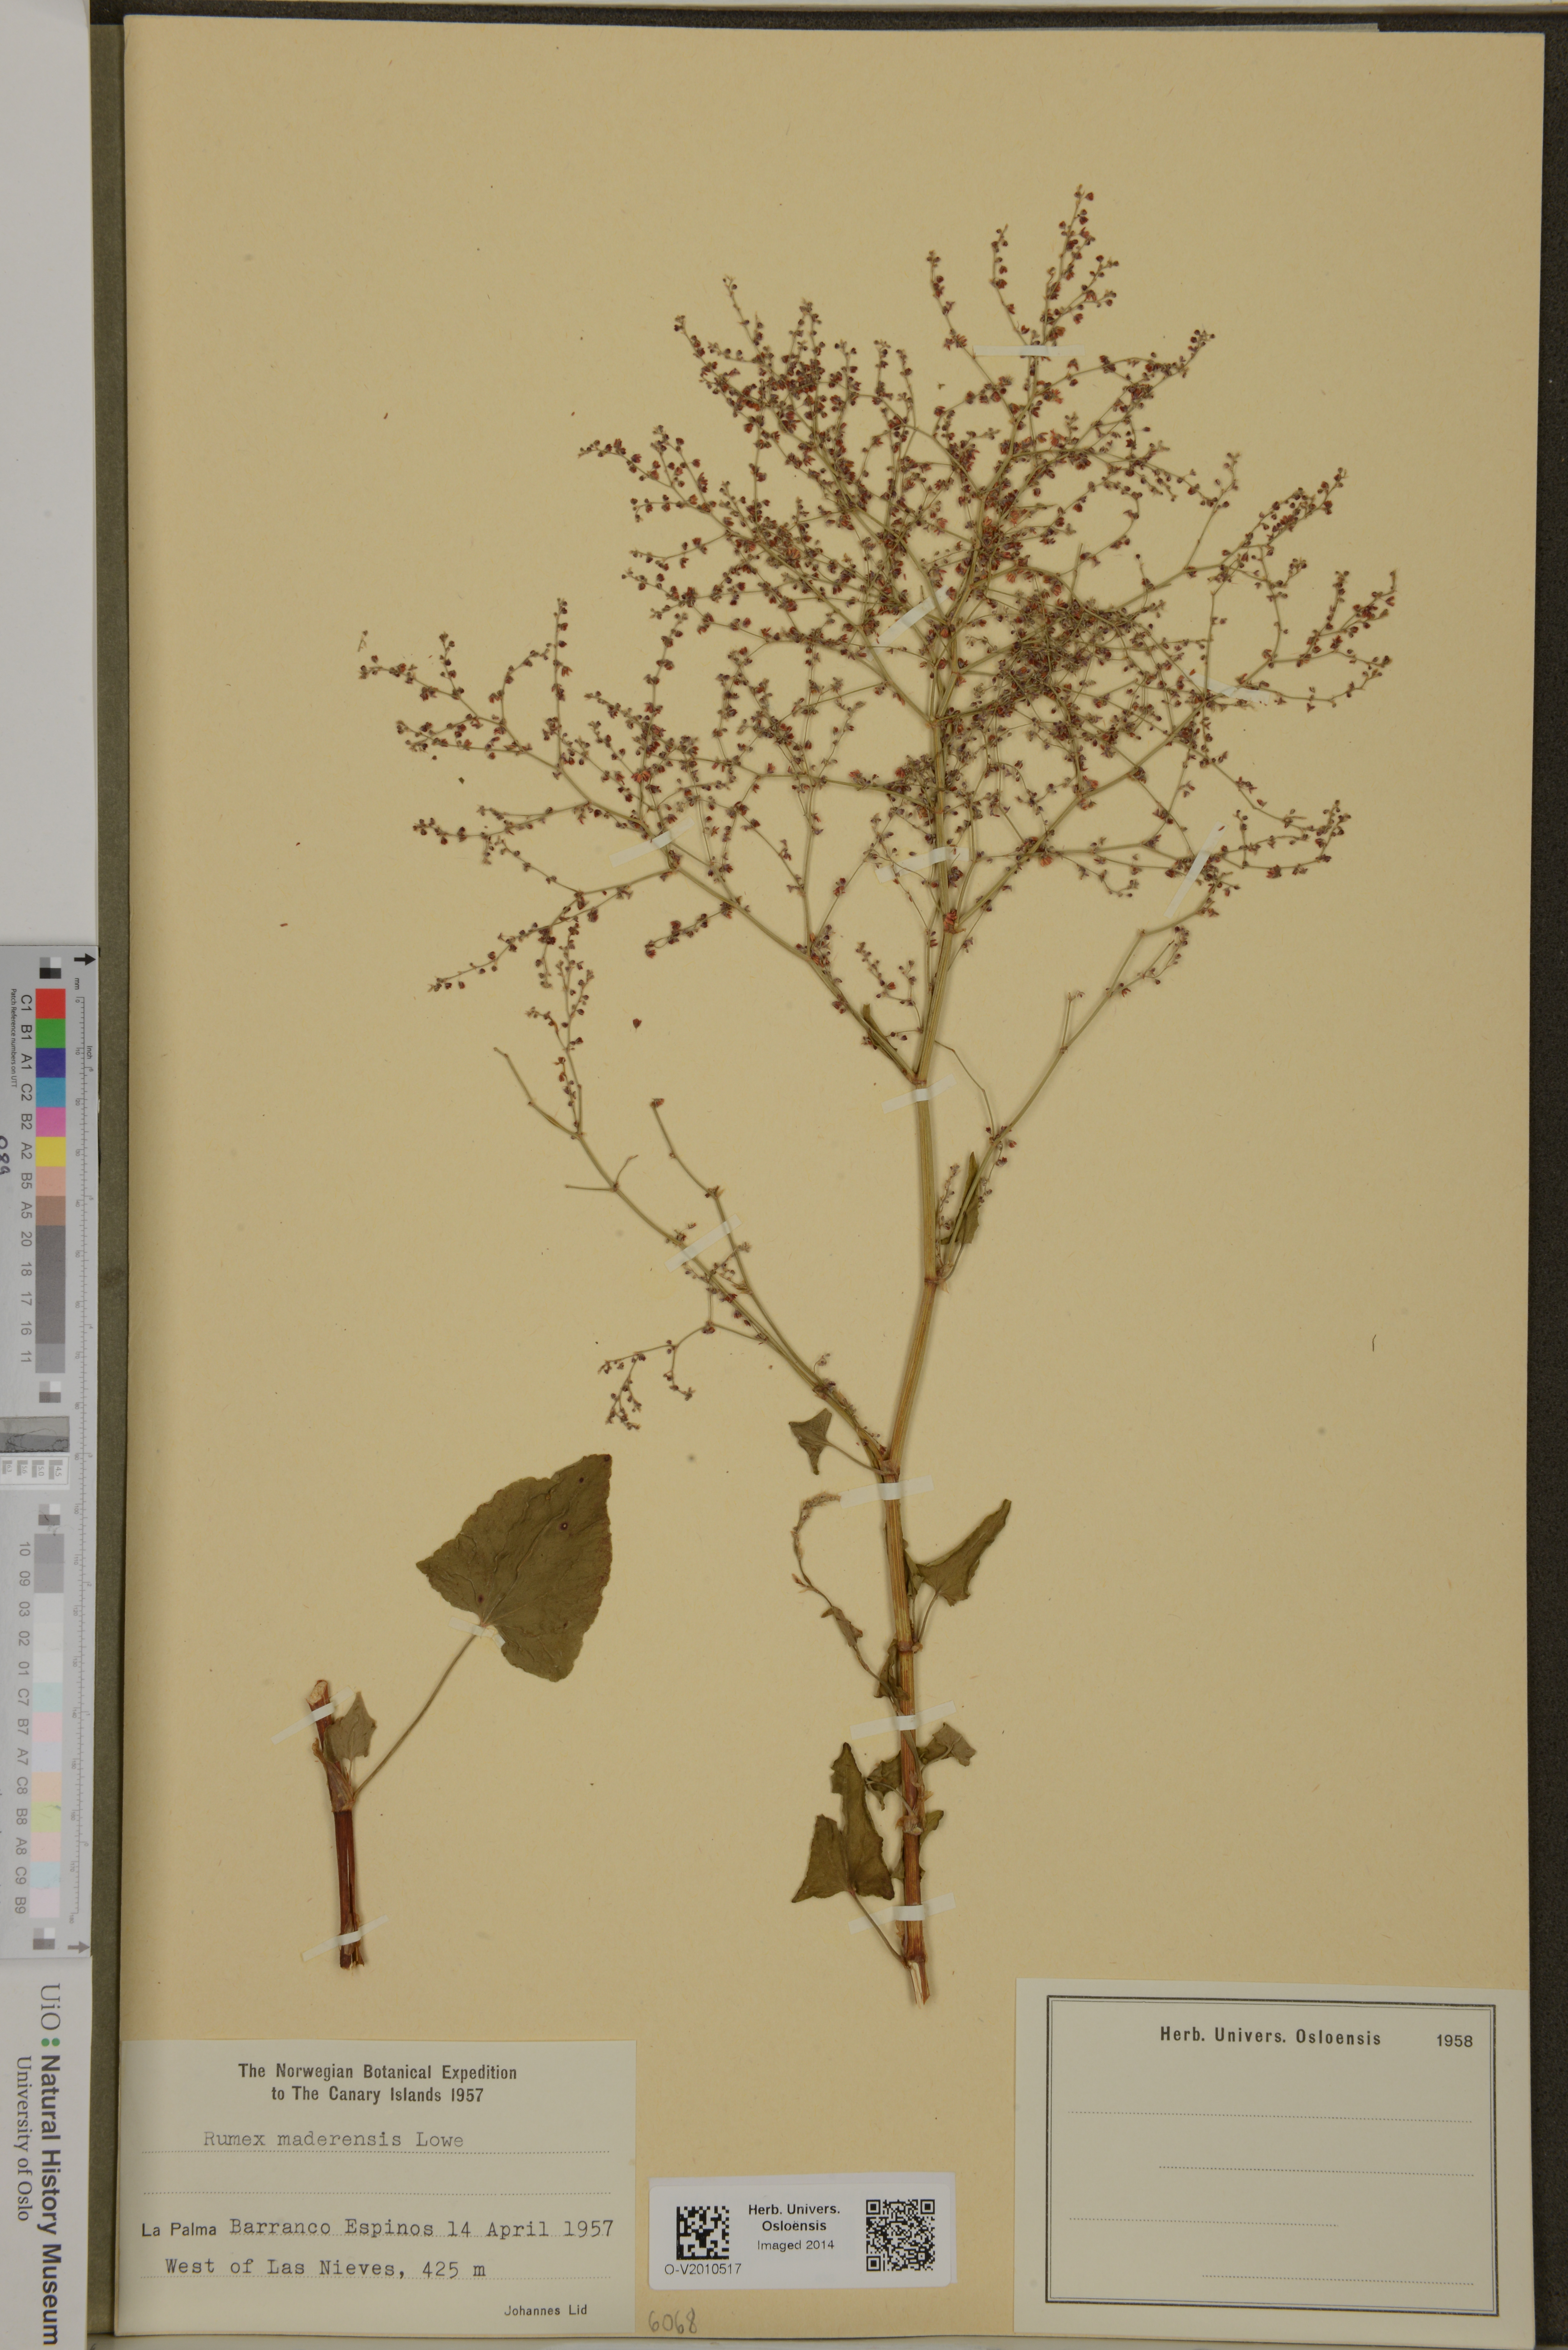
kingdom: Plantae
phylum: Tracheophyta
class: Magnoliopsida
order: Caryophyllales
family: Polygonaceae
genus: Rumex
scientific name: Rumex maderensis
